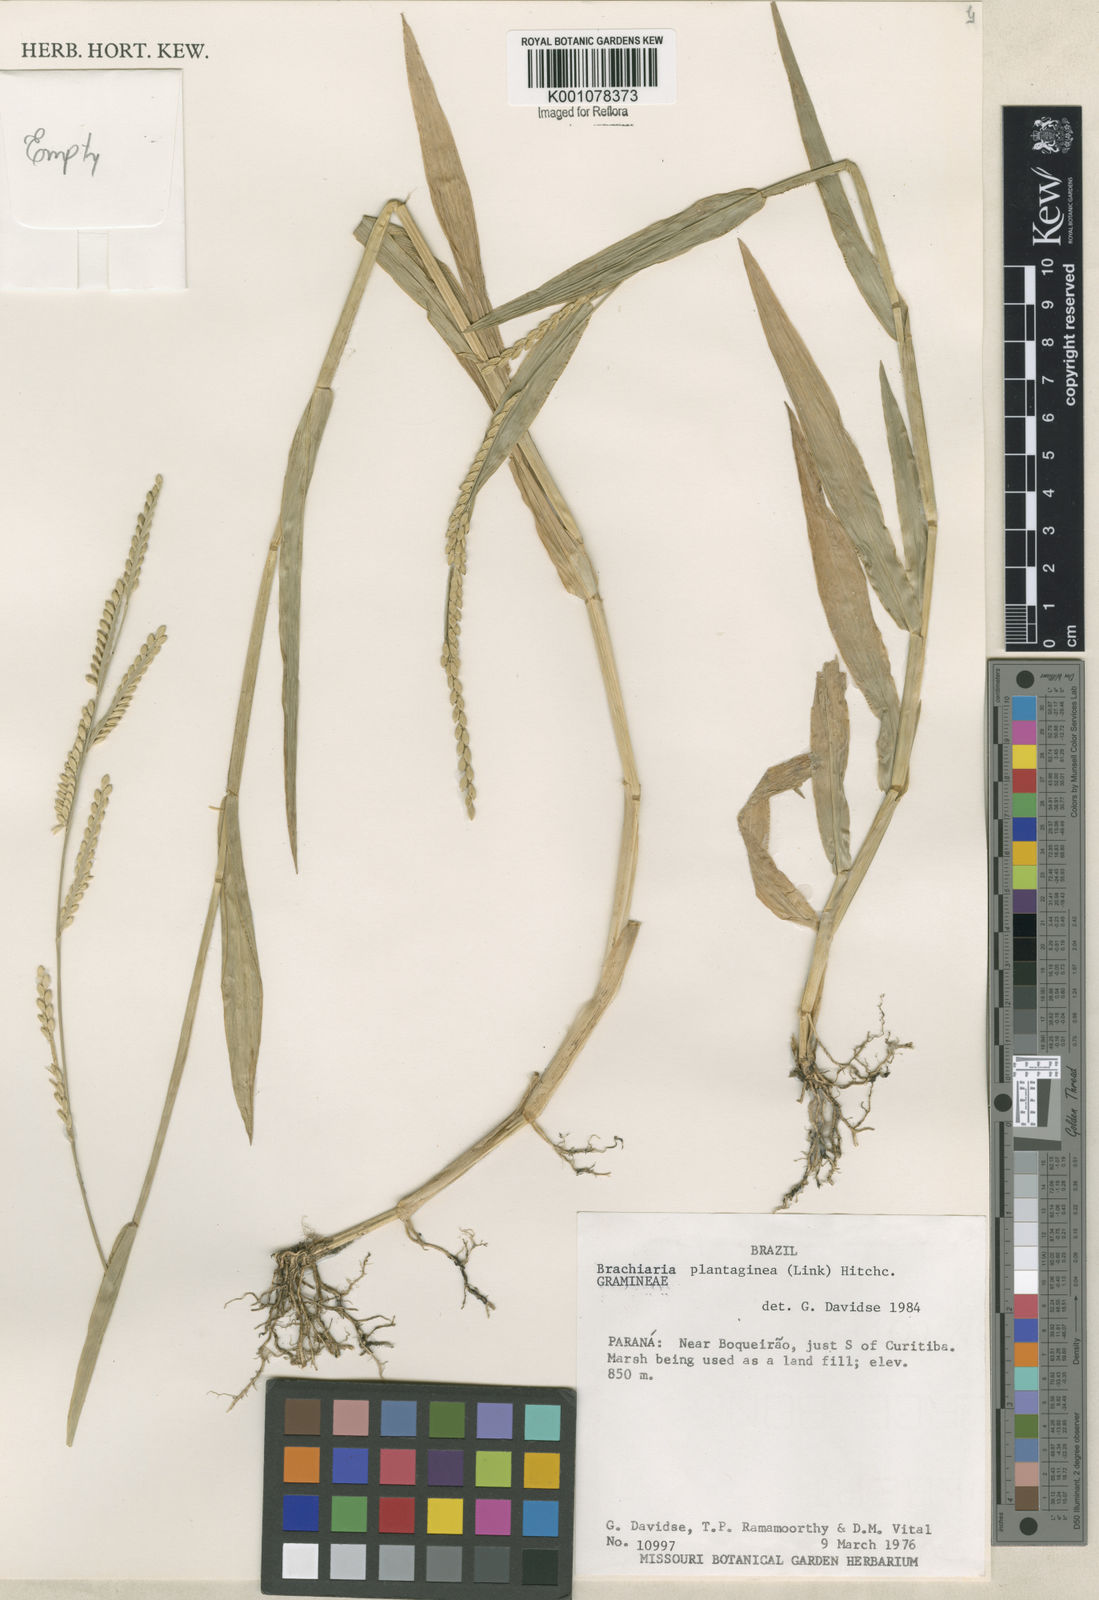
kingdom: Plantae
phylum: Tracheophyta
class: Liliopsida
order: Poales
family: Poaceae
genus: Urochloa
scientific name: Urochloa plantaginea
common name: Plantain signalgrass
